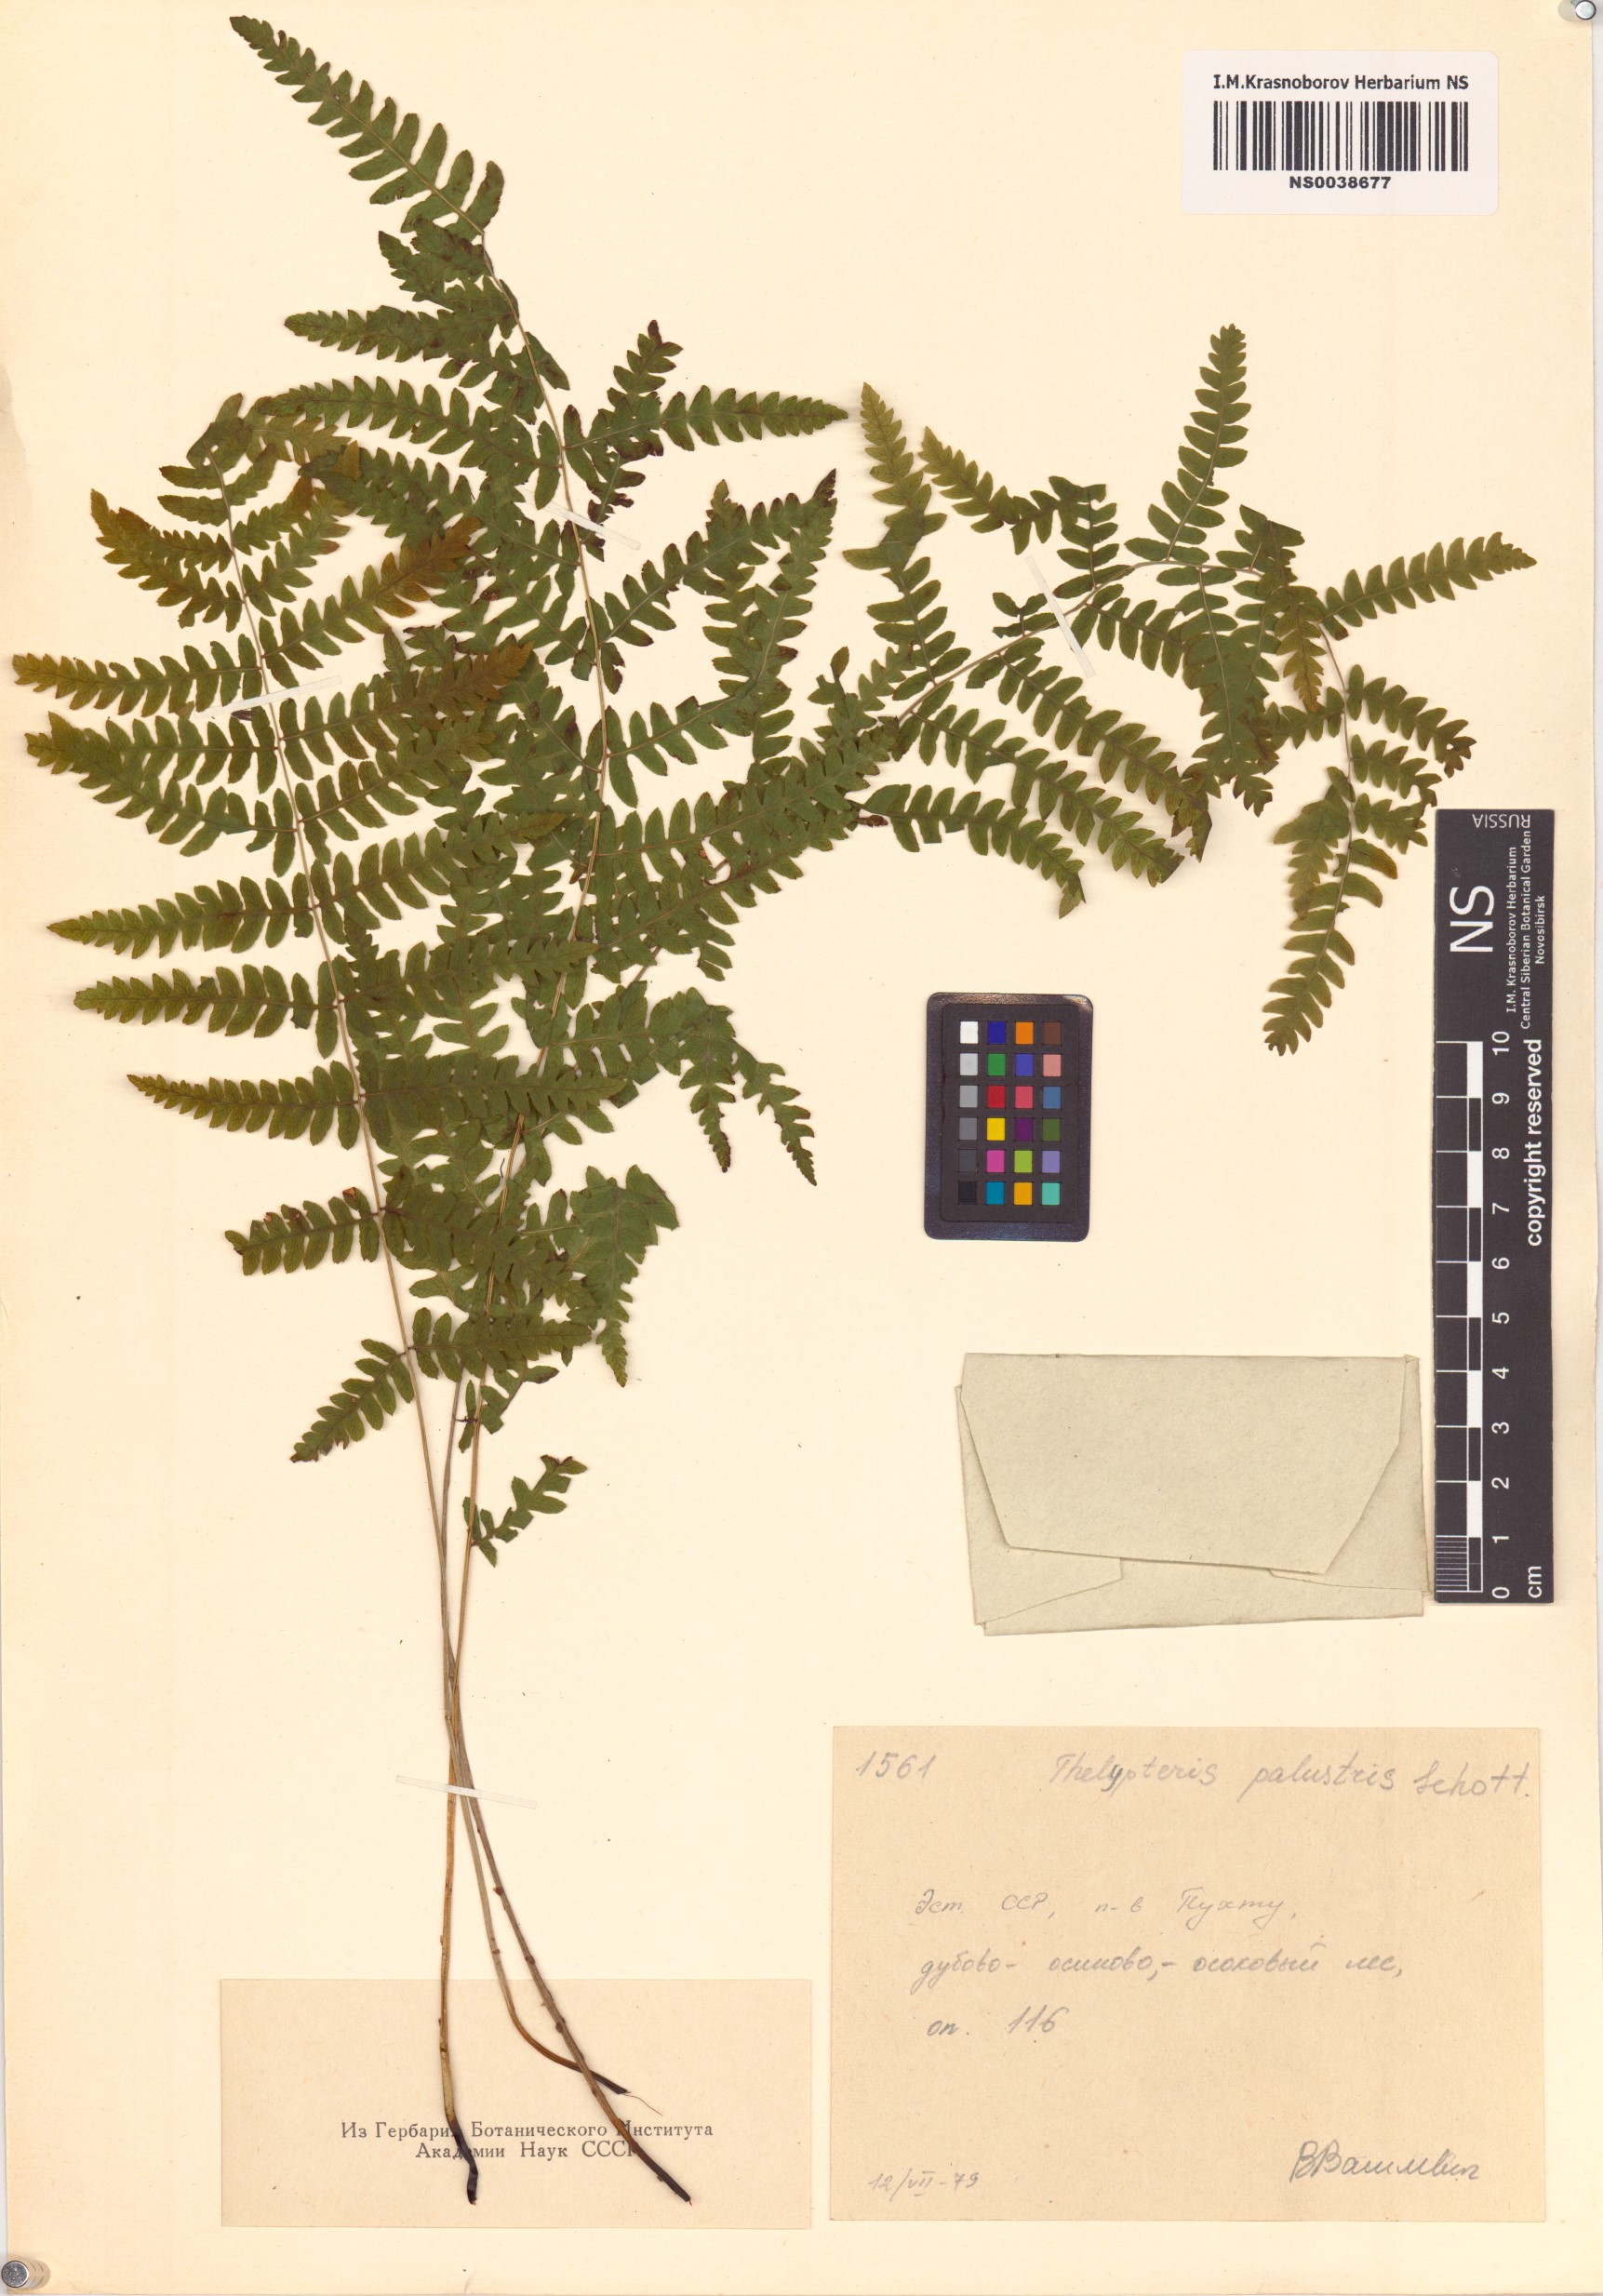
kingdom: Plantae
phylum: Tracheophyta
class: Polypodiopsida
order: Polypodiales
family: Thelypteridaceae
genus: Thelypteris
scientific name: Thelypteris palustris
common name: Marsh fern
